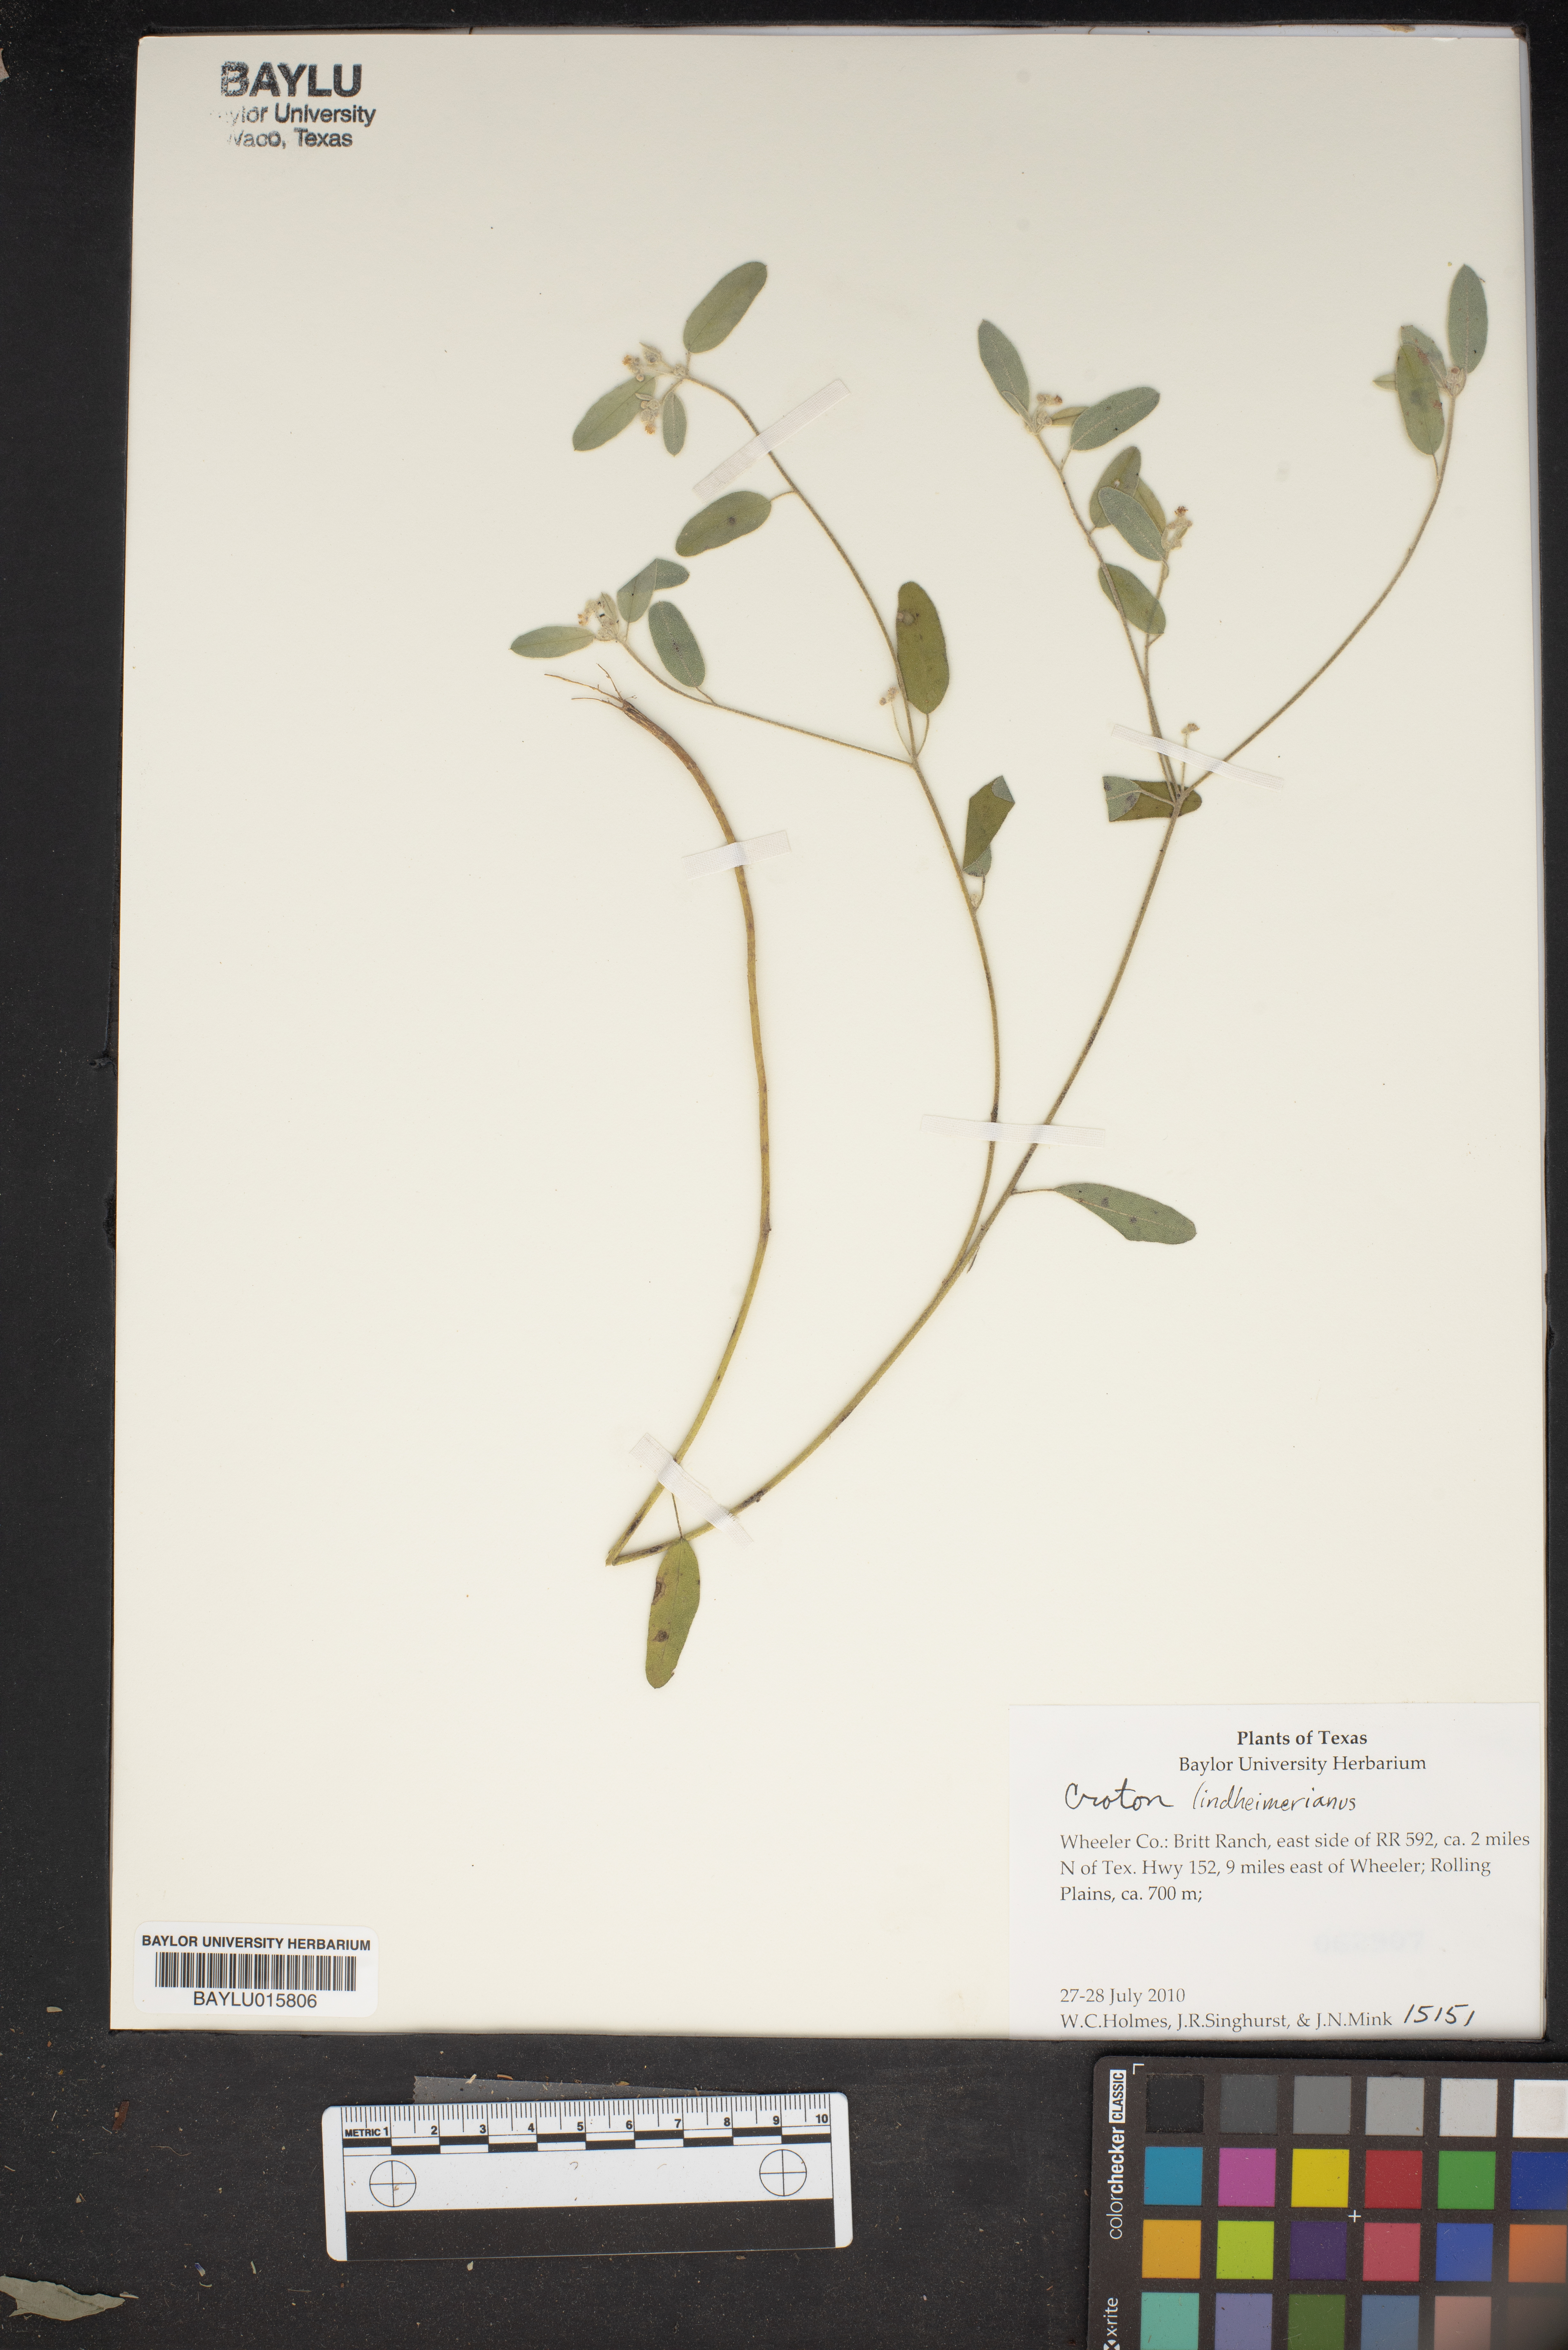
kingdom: Plantae
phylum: Tracheophyta
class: Magnoliopsida
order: Malpighiales
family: Euphorbiaceae
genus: Croton
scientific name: Croton lindheimerianus
